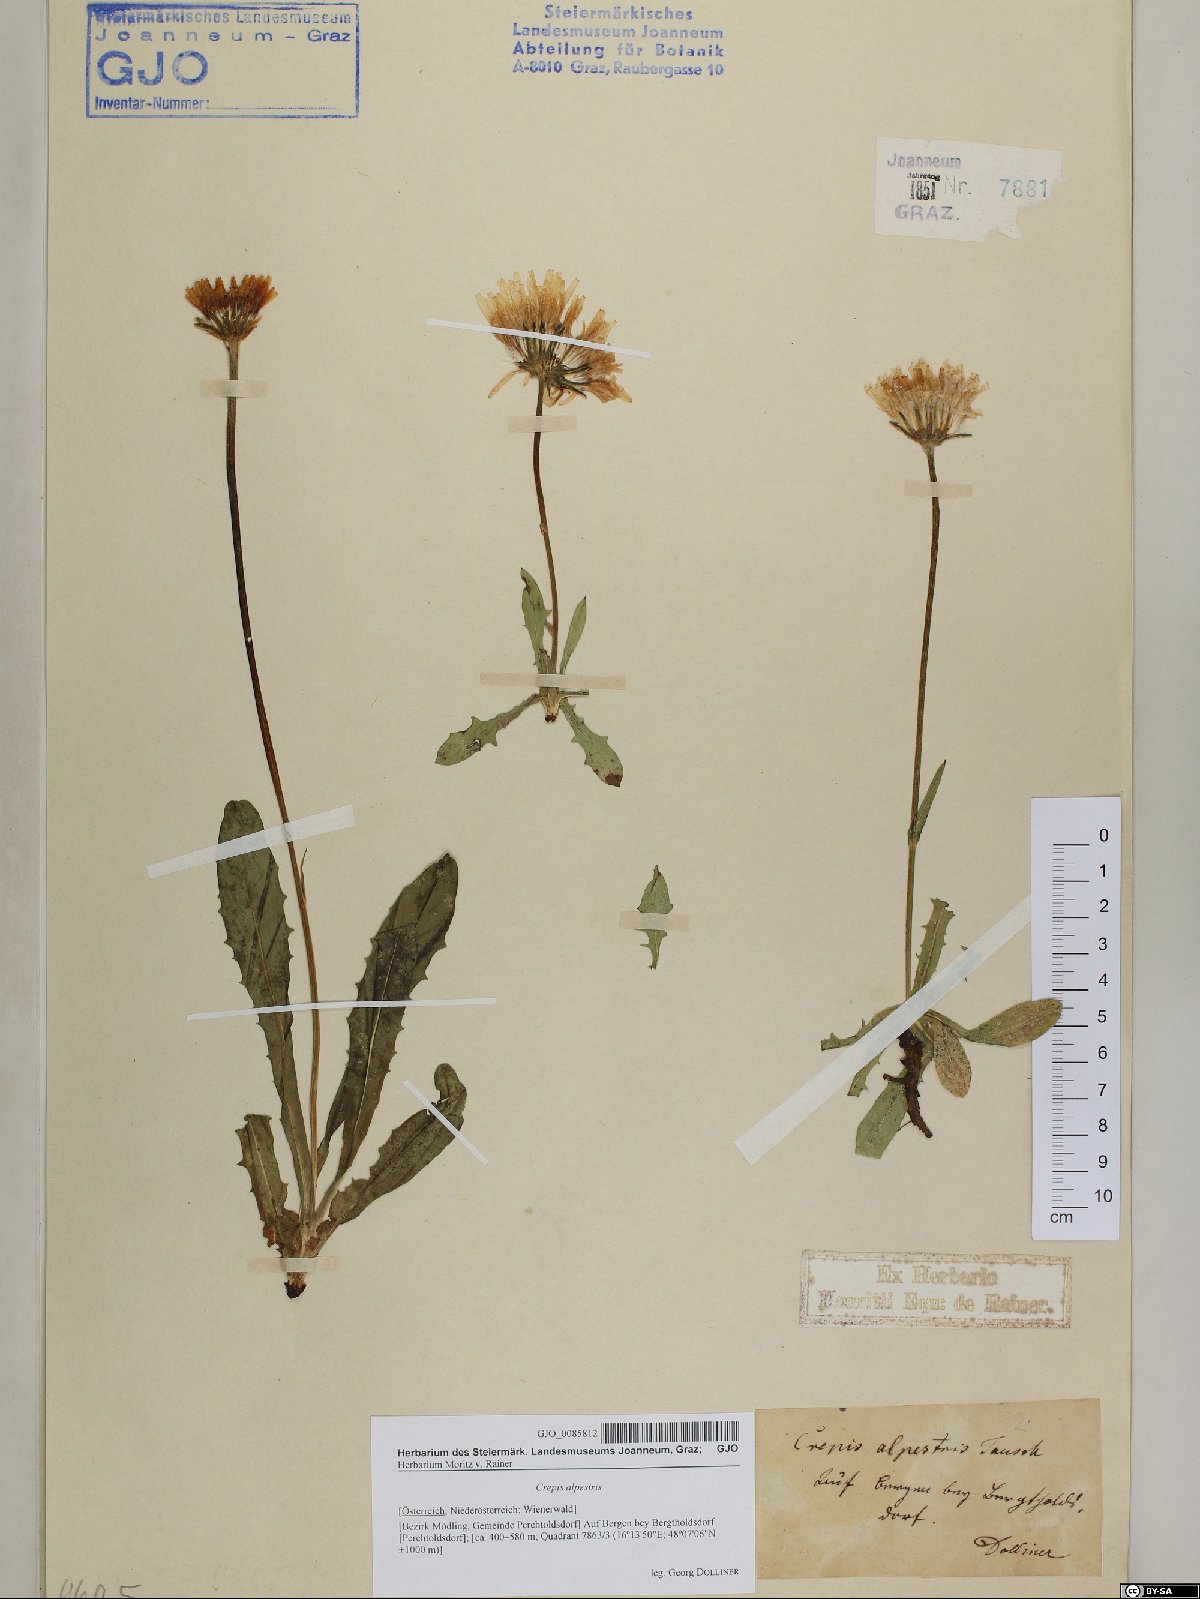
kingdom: Plantae
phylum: Tracheophyta
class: Magnoliopsida
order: Asterales
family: Asteraceae
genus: Crepis
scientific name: Crepis alpestris
